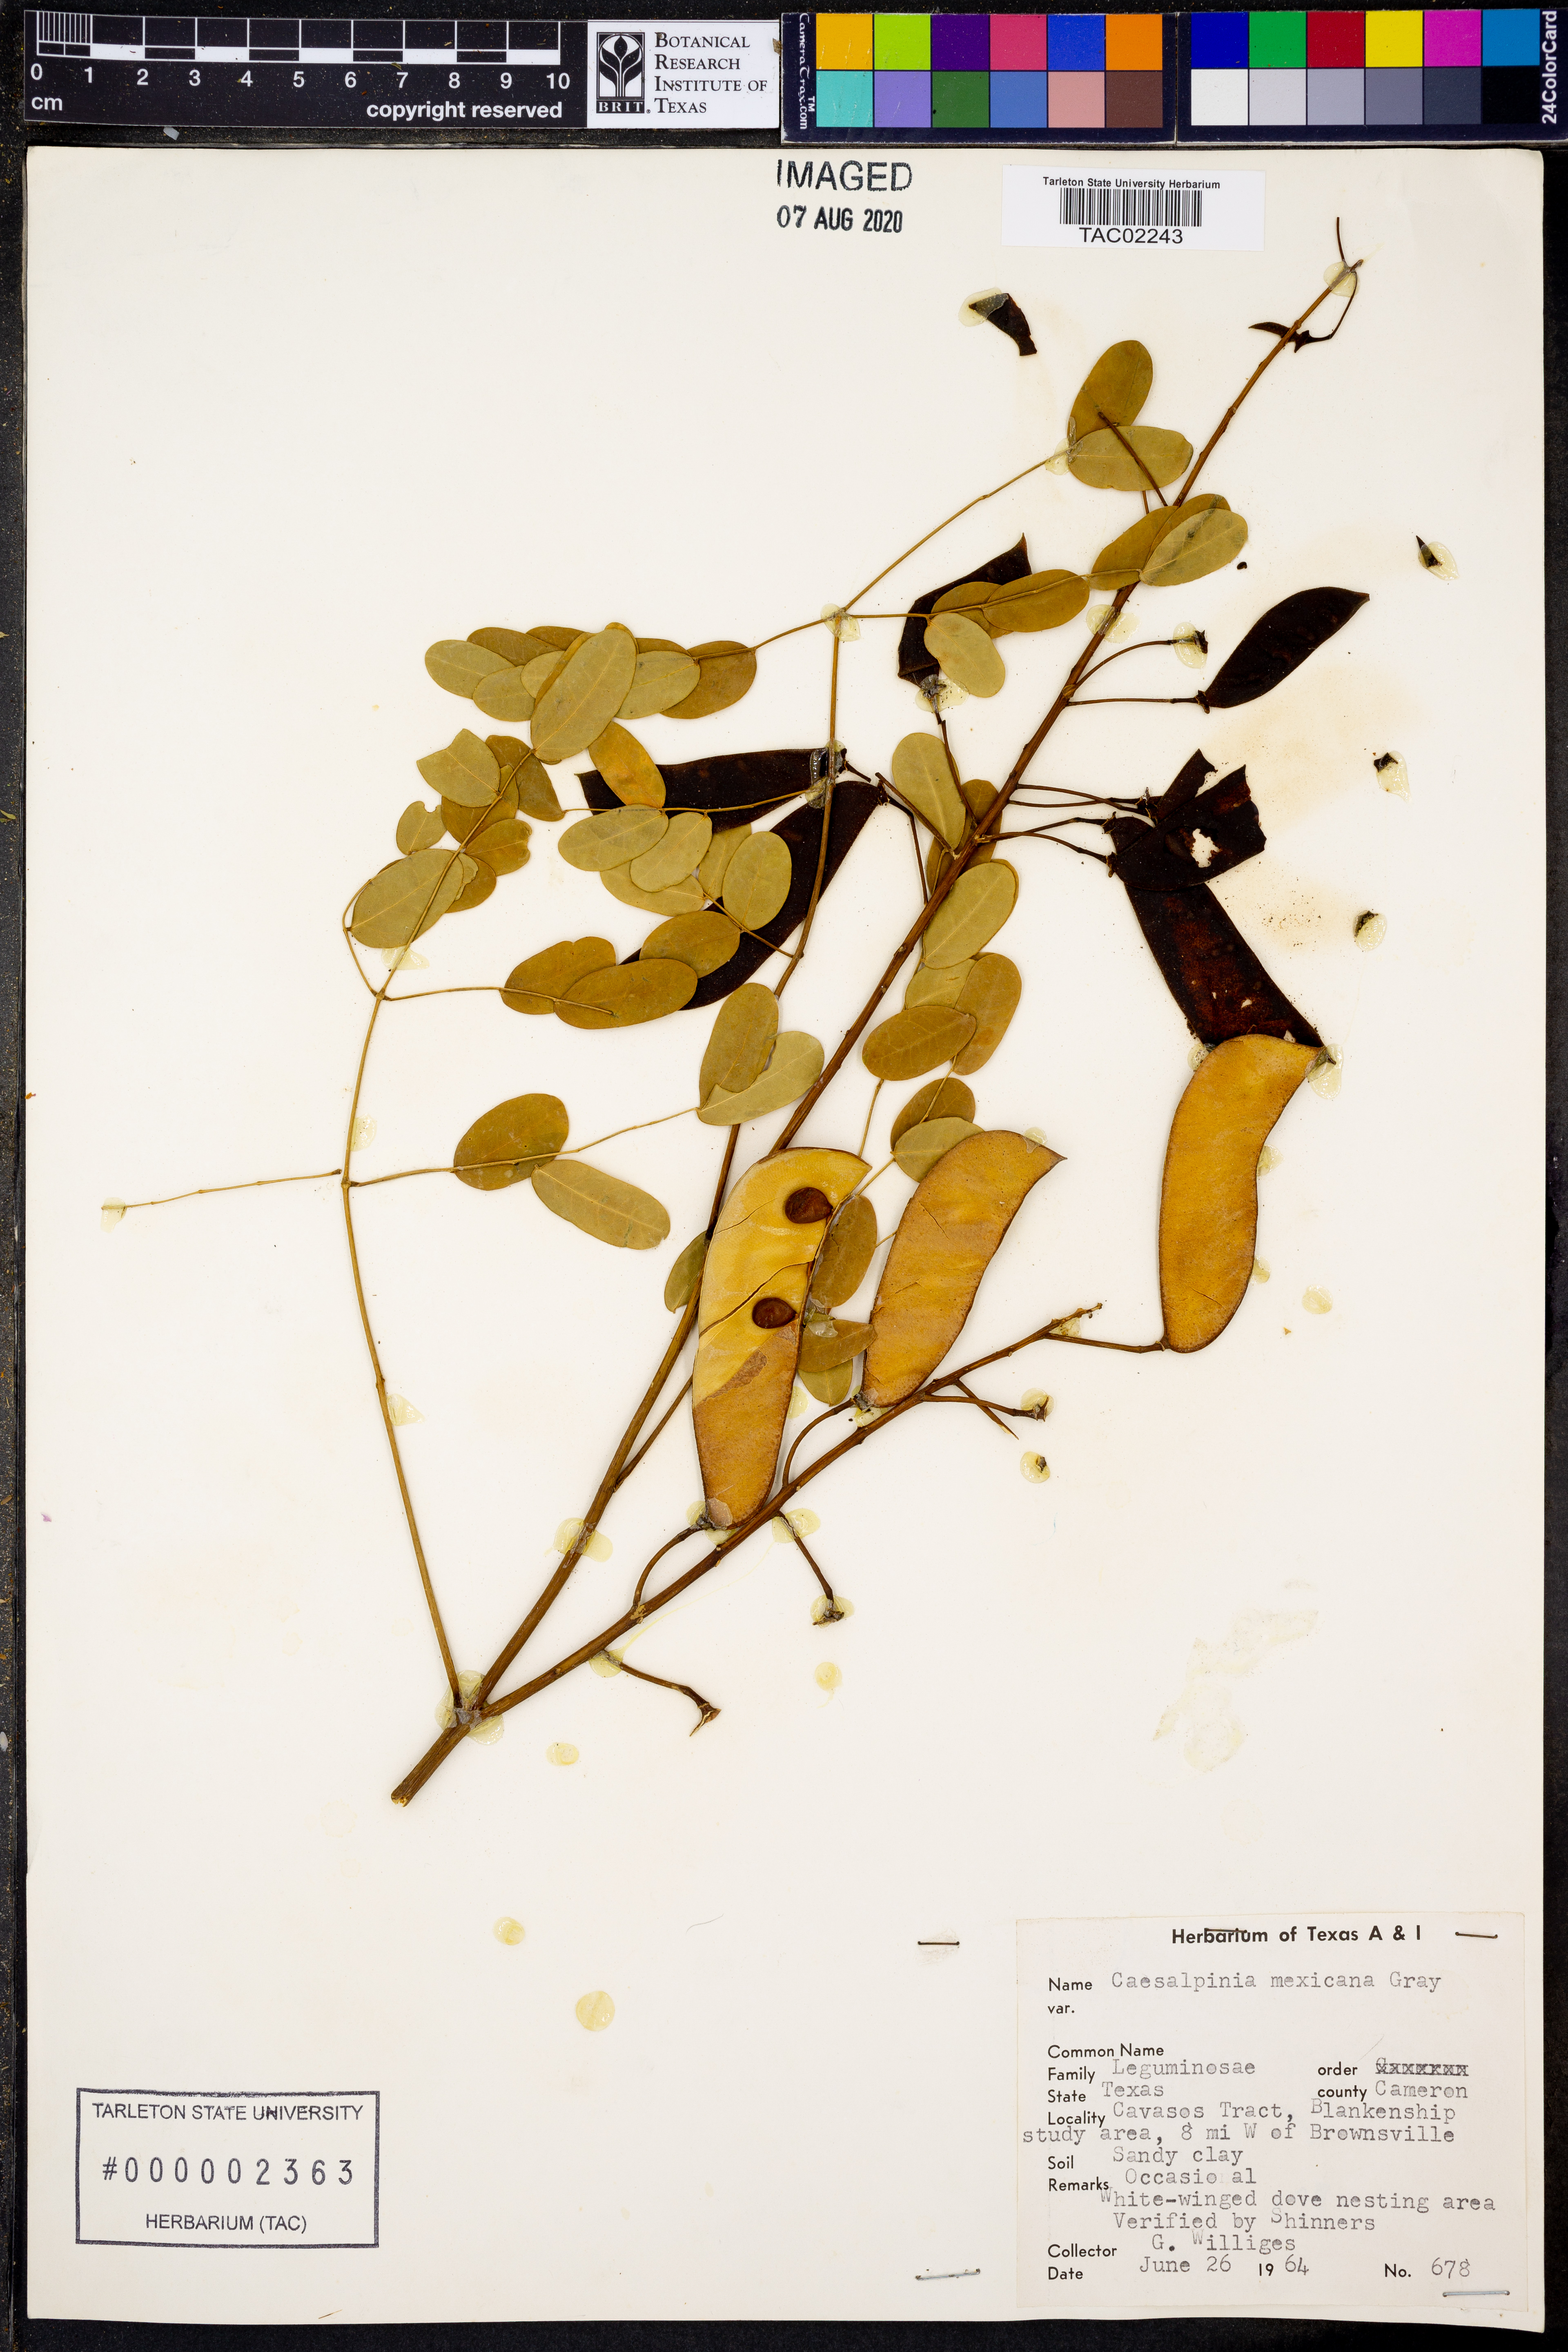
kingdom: Plantae
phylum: Tracheophyta
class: Magnoliopsida
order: Fabales
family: Fabaceae
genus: Erythrostemon
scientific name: Erythrostemon mexicanus
